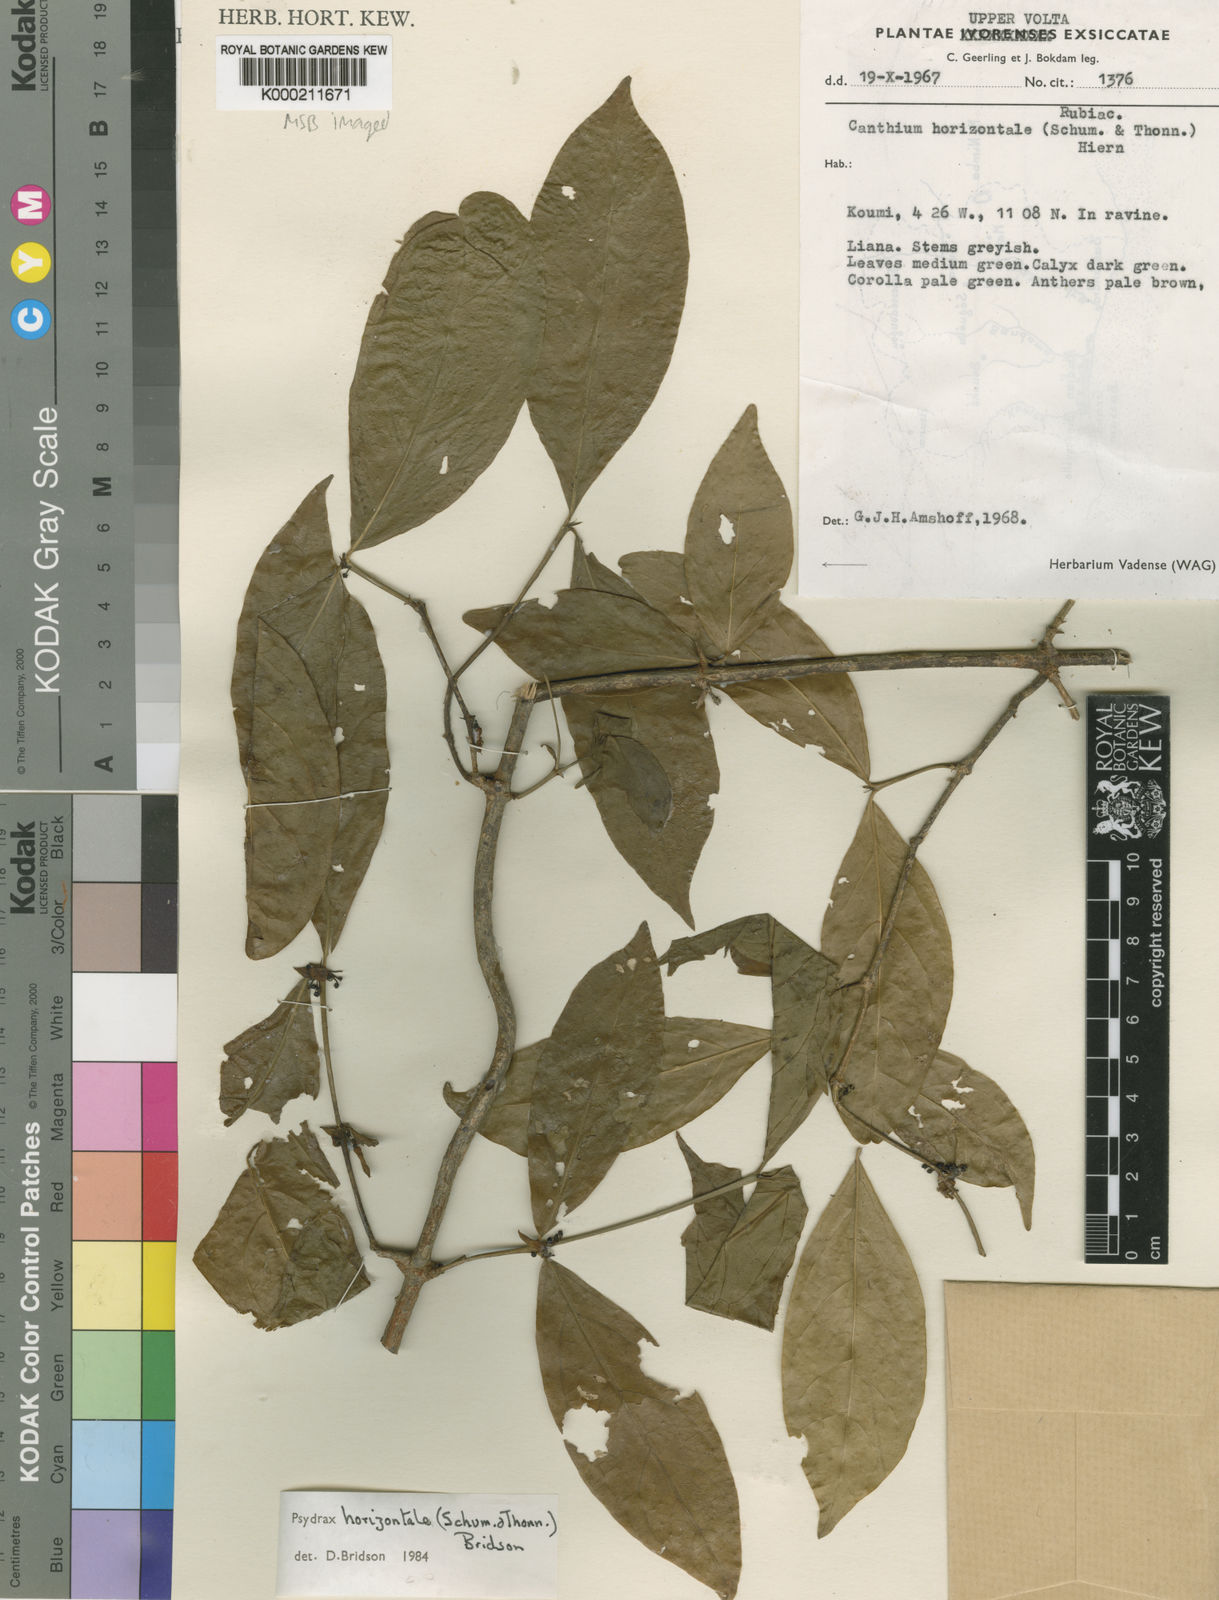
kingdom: Plantae
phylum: Tracheophyta
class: Magnoliopsida
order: Gentianales
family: Rubiaceae
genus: Psydrax
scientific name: Psydrax horizontalis
